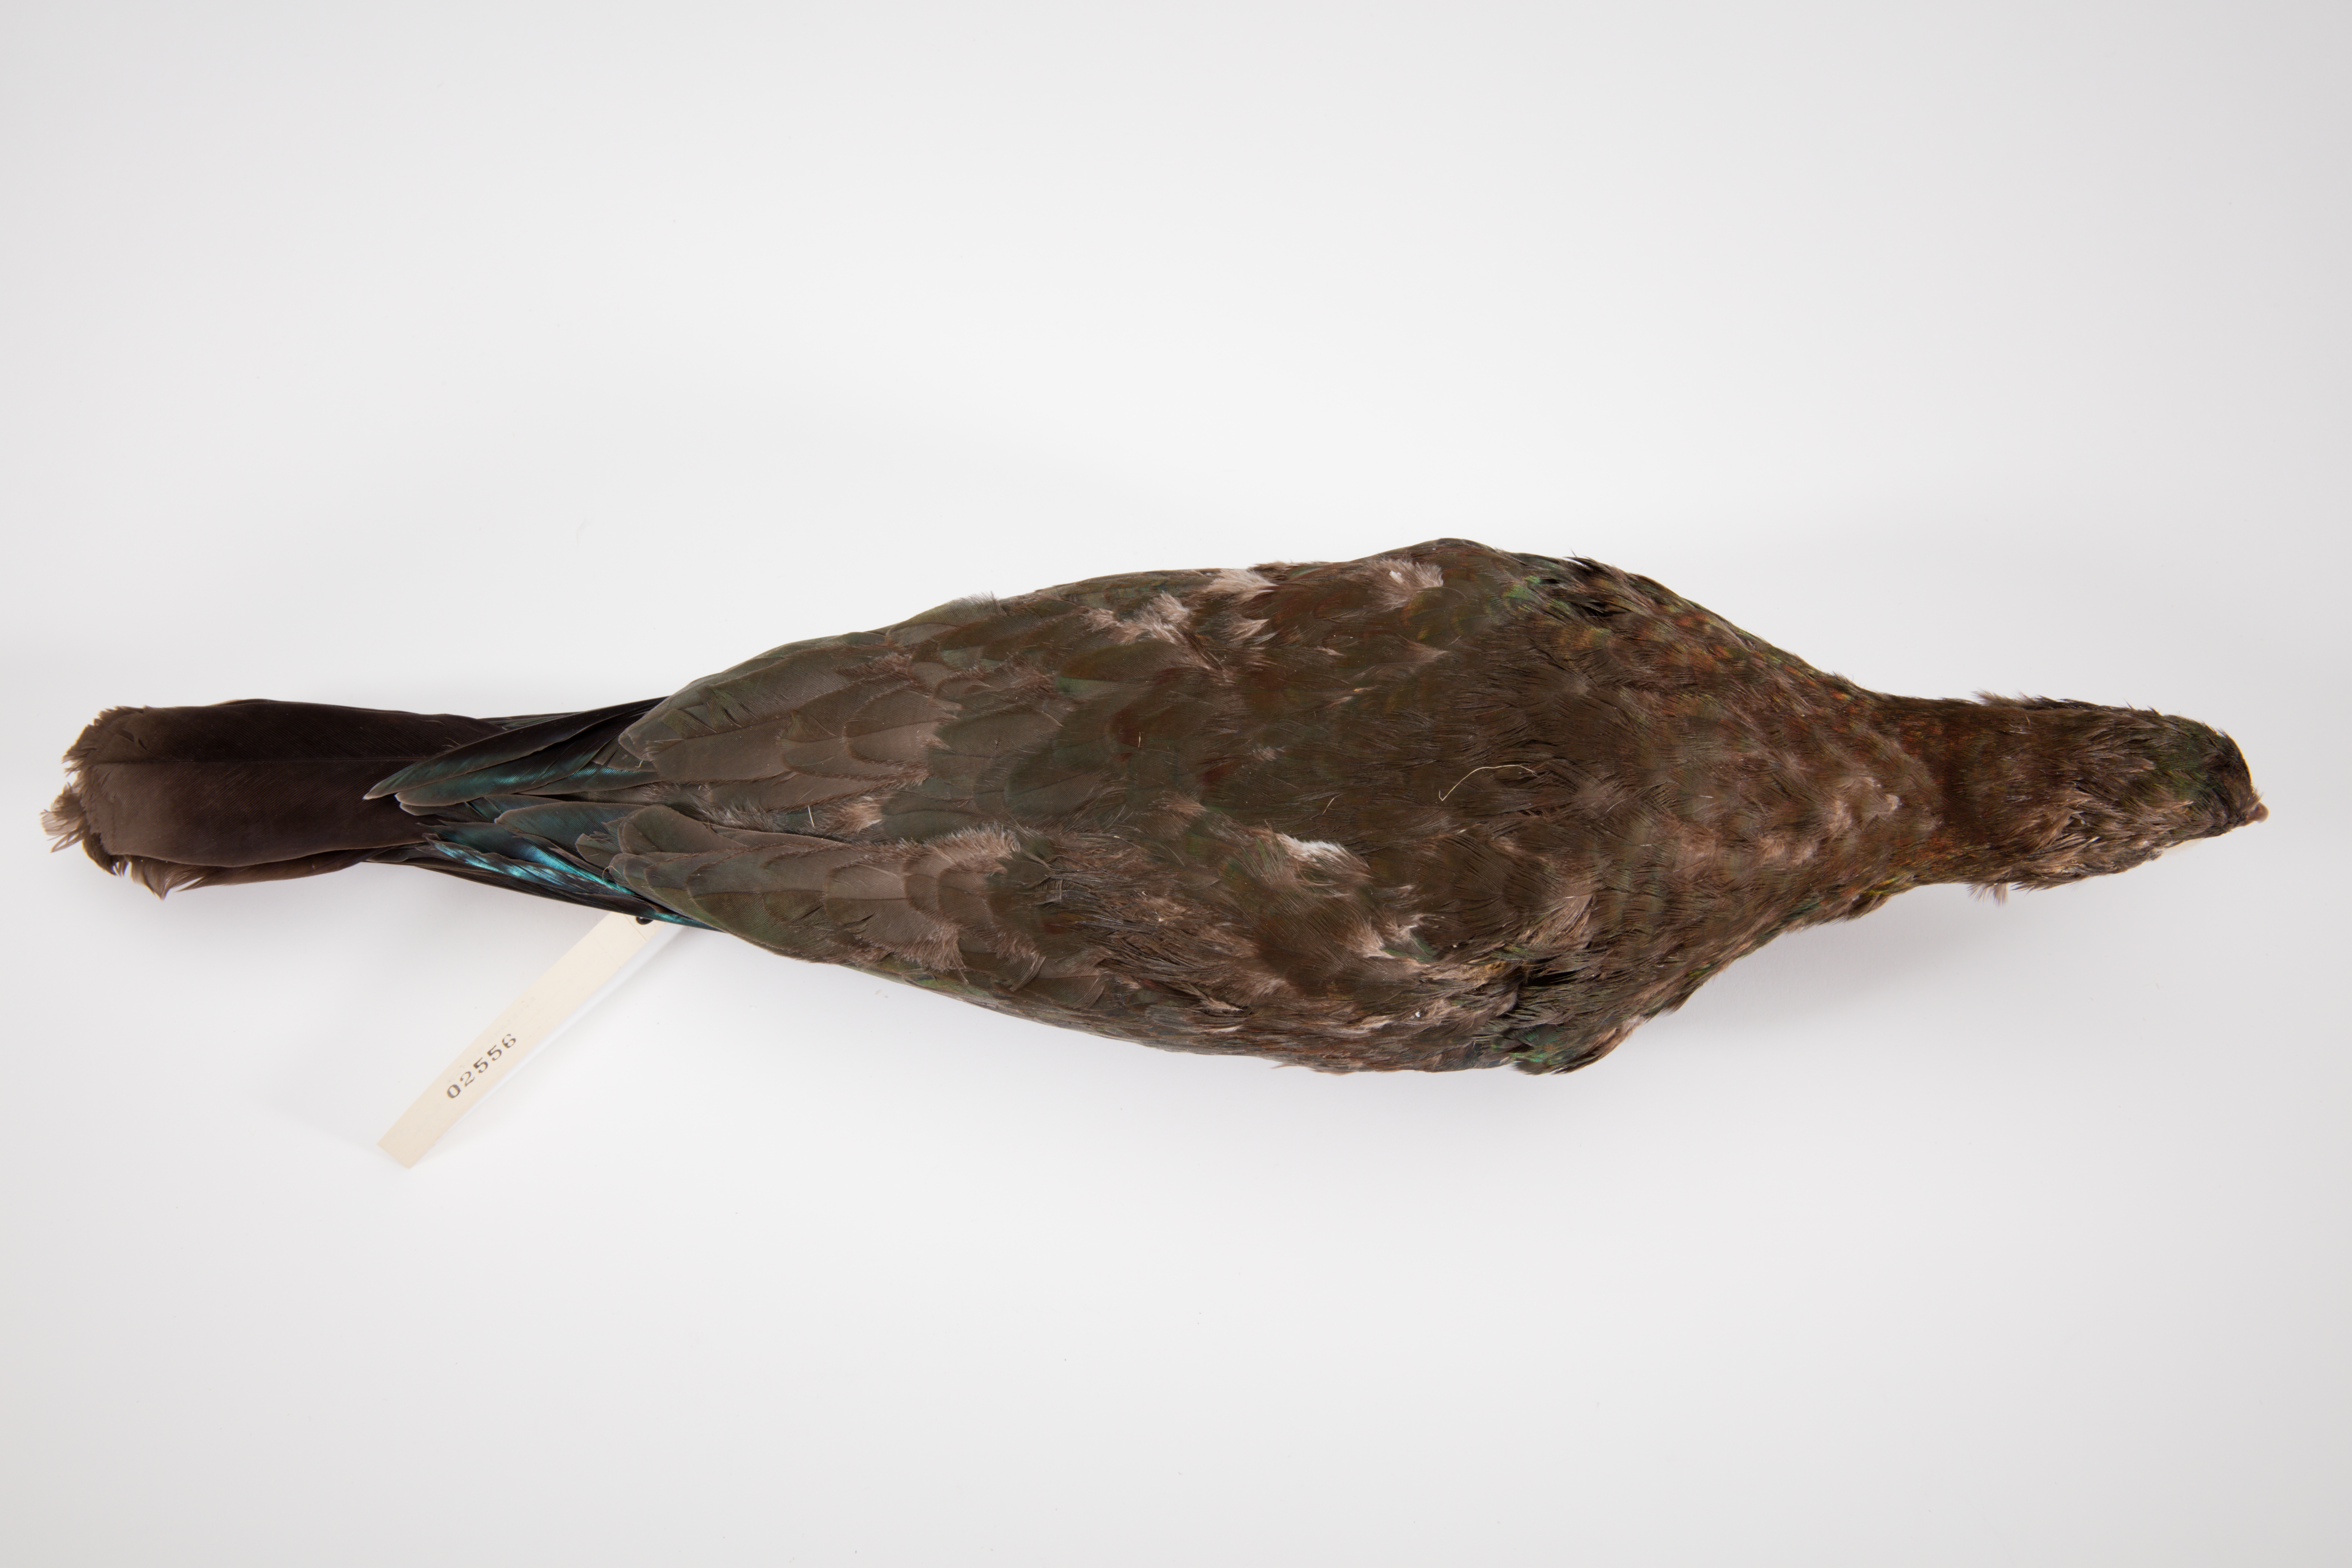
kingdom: Animalia
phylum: Chordata
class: Aves
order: Columbiformes
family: Columbidae
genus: Hemiphaga
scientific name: Hemiphaga novaeseelandiae
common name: New zealand pigeon
